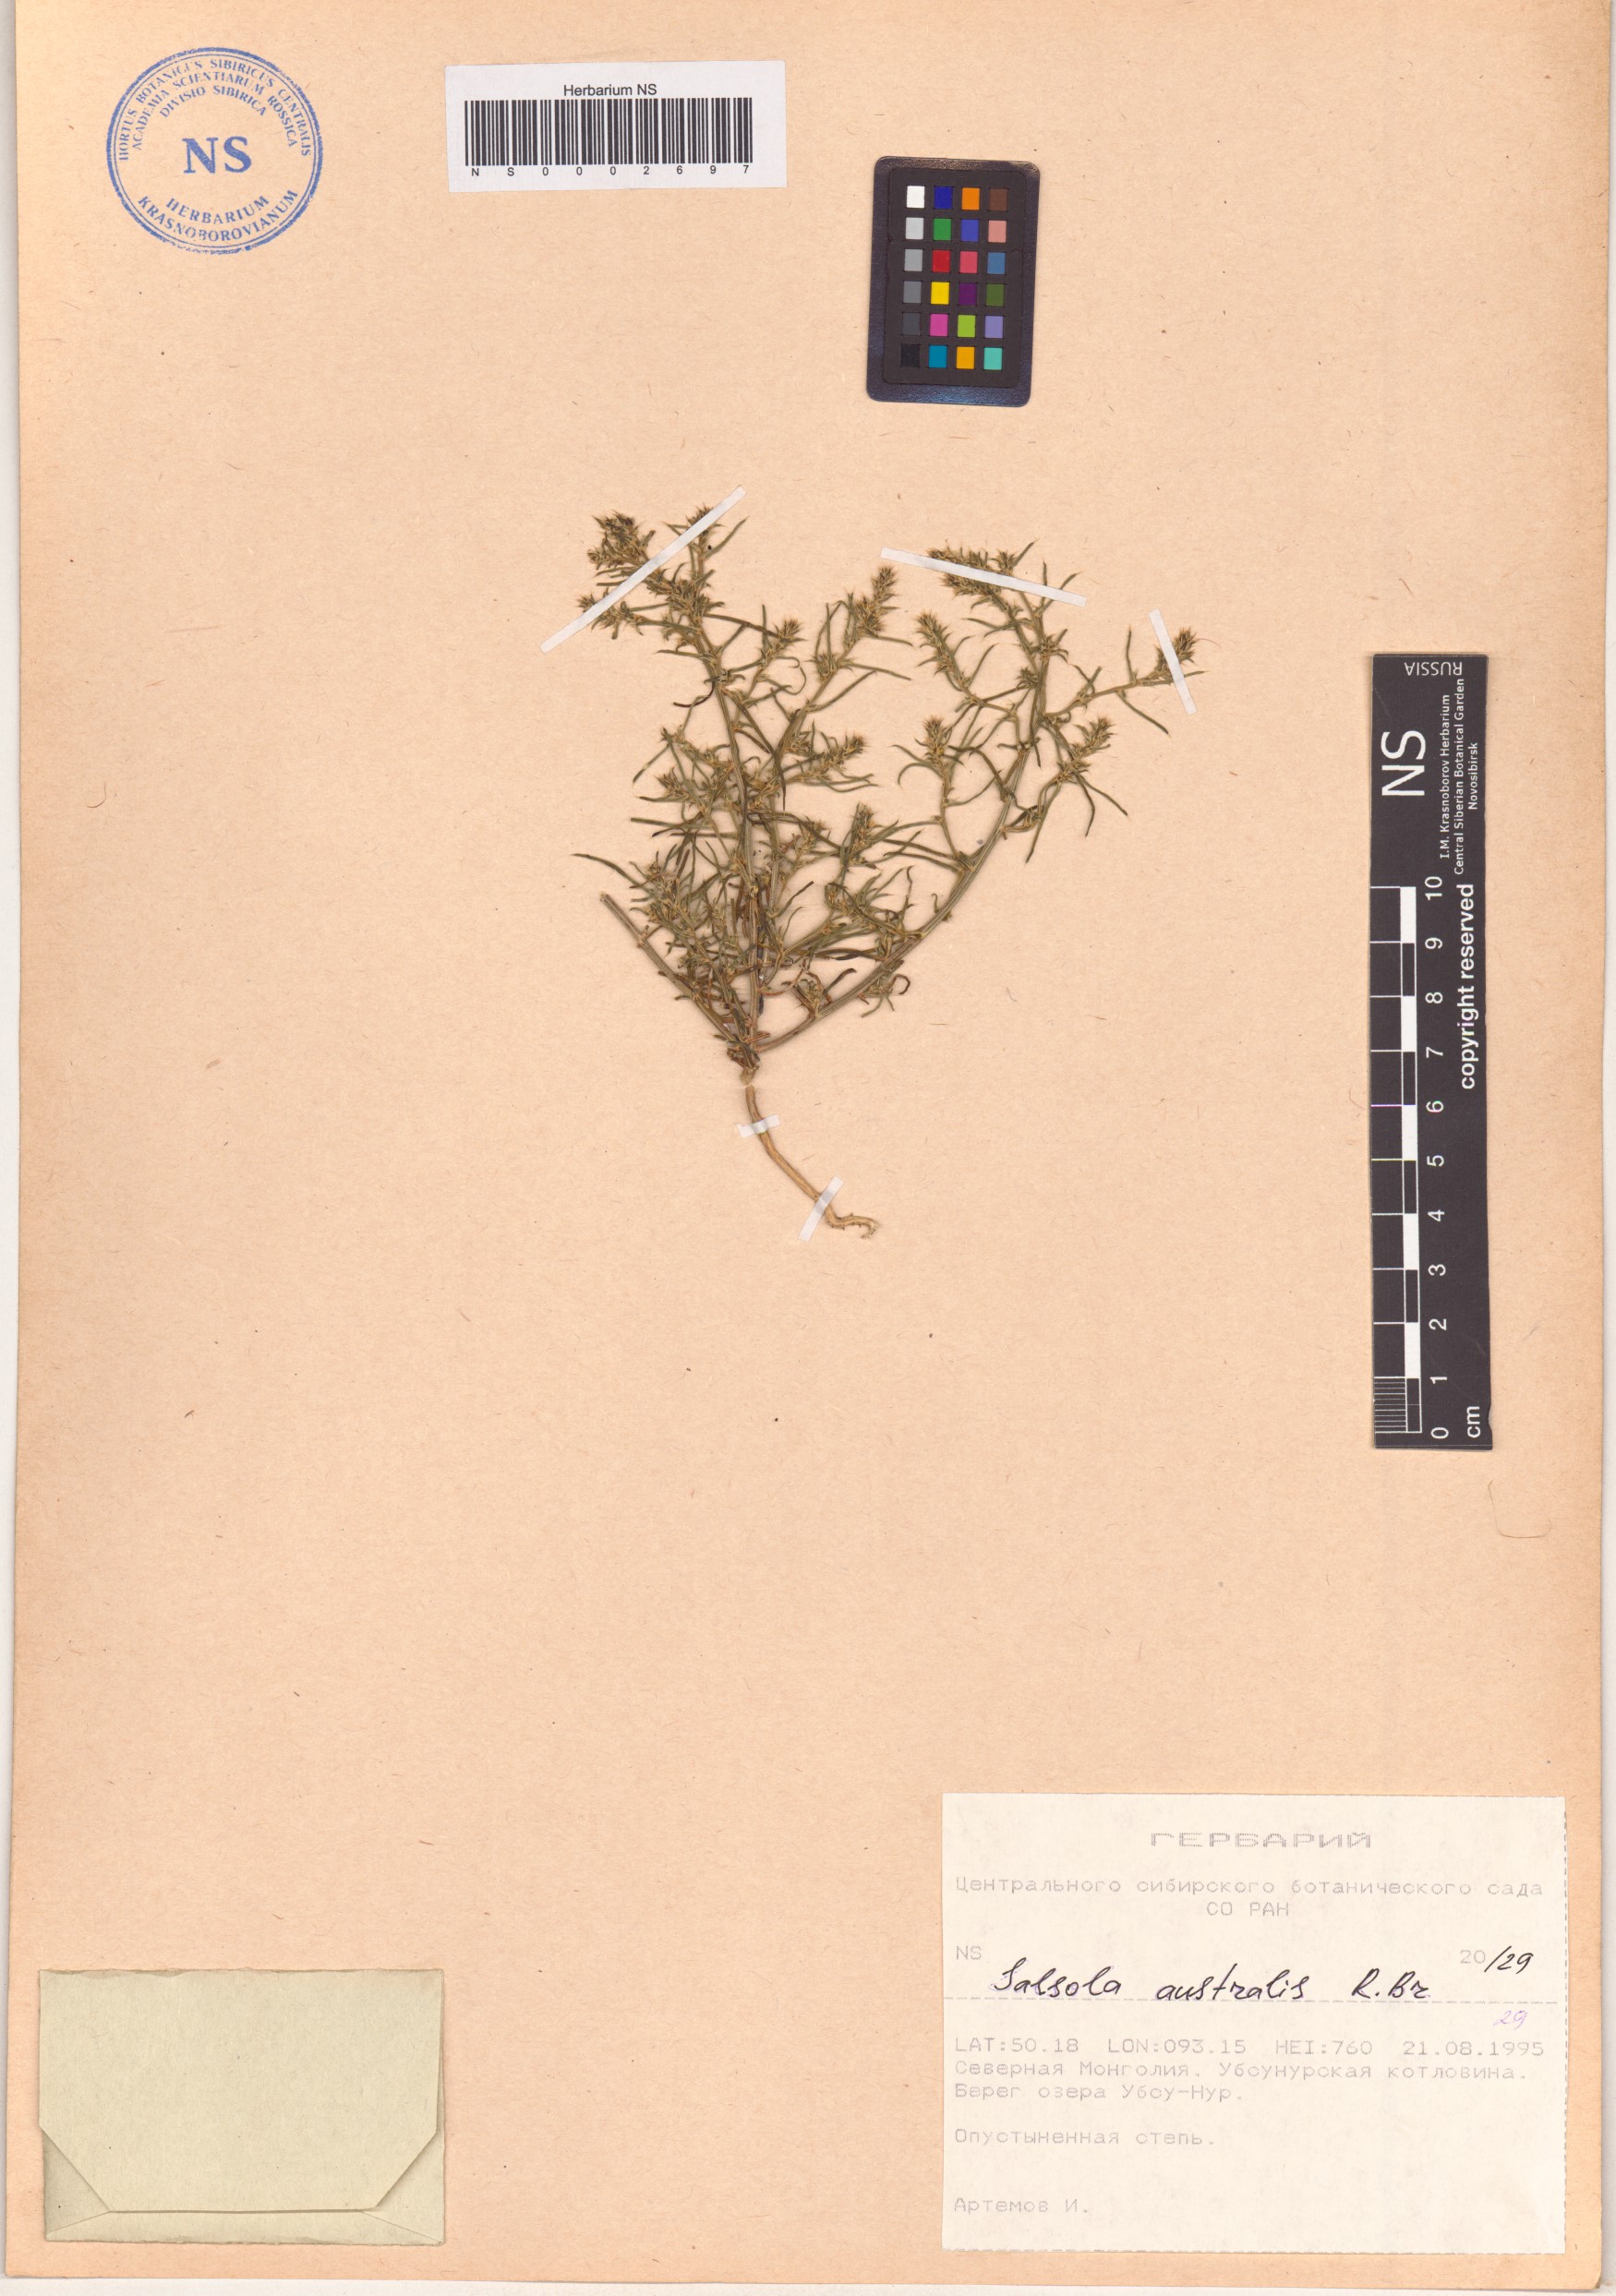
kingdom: Plantae
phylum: Tracheophyta
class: Magnoliopsida
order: Caryophyllales
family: Amaranthaceae
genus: Salsola
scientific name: Salsola australis
